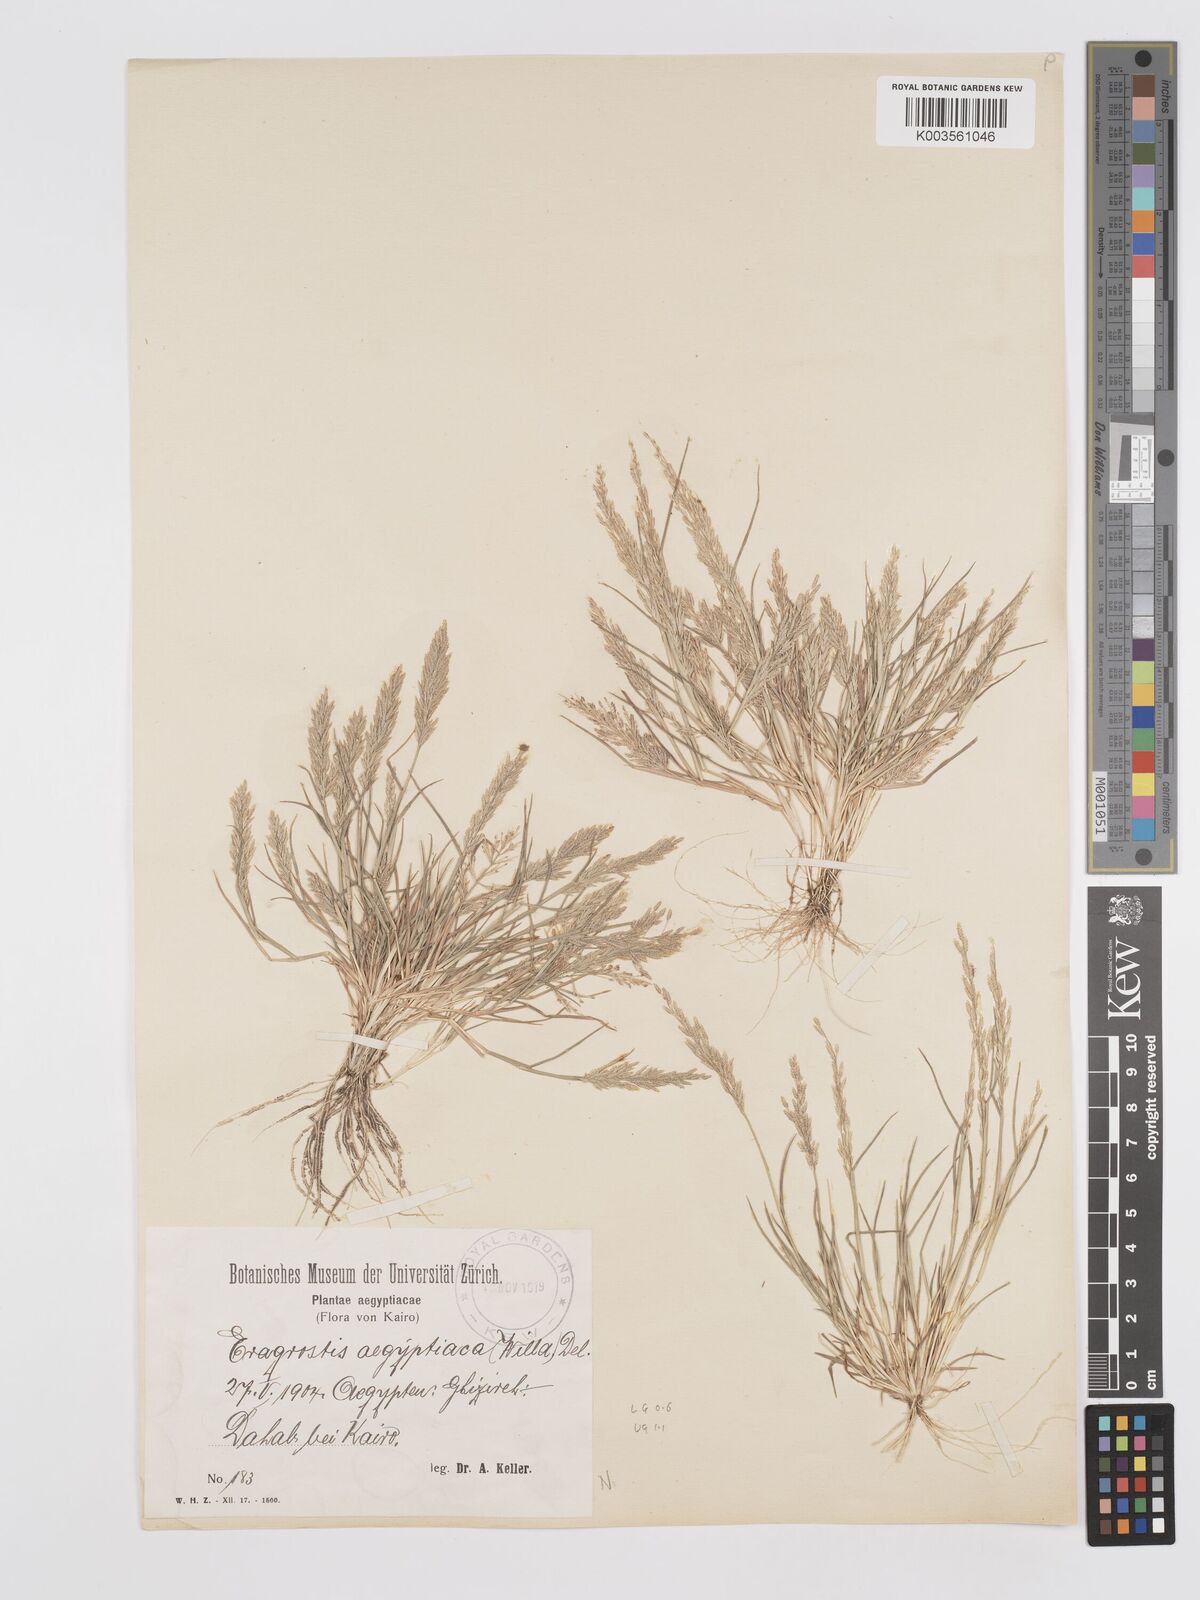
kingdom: Plantae
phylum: Tracheophyta
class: Liliopsida
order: Poales
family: Poaceae
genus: Eragrostis
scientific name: Eragrostis aegyptiaca
